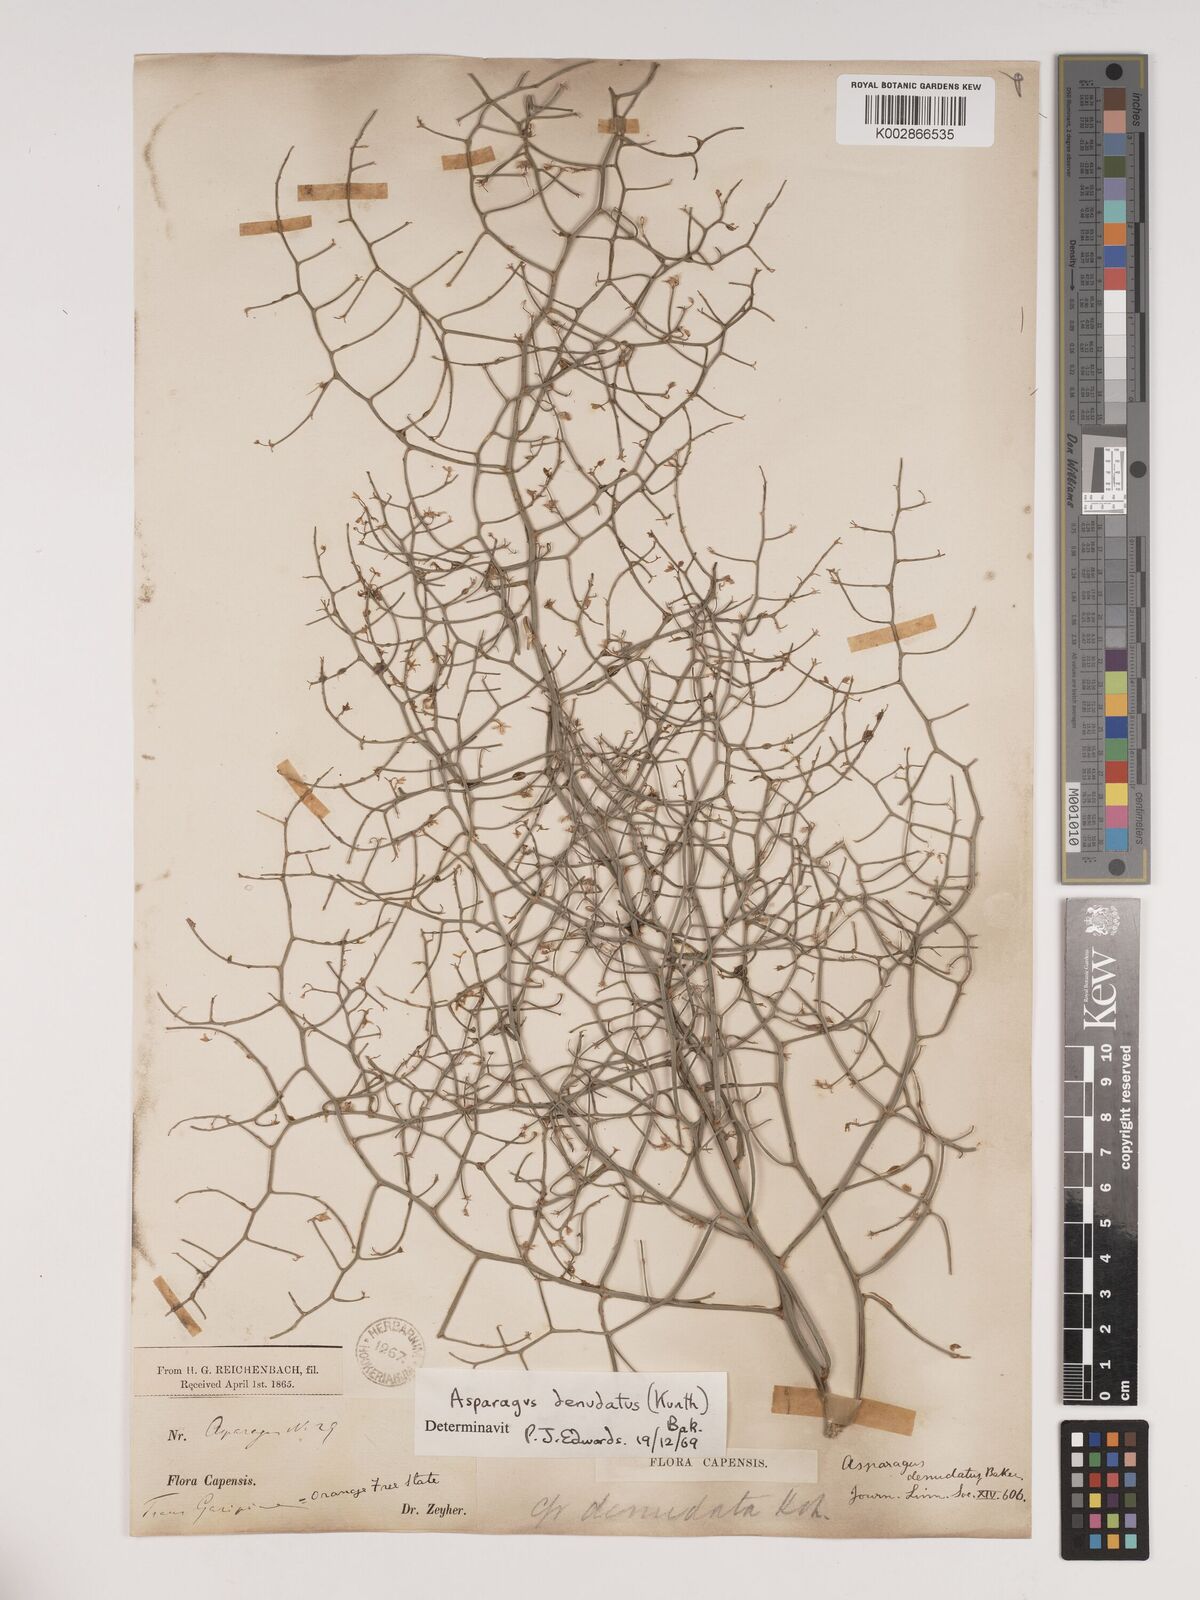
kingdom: Plantae
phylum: Tracheophyta
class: Liliopsida
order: Asparagales
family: Asparagaceae
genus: Asparagus
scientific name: Asparagus denudatus
